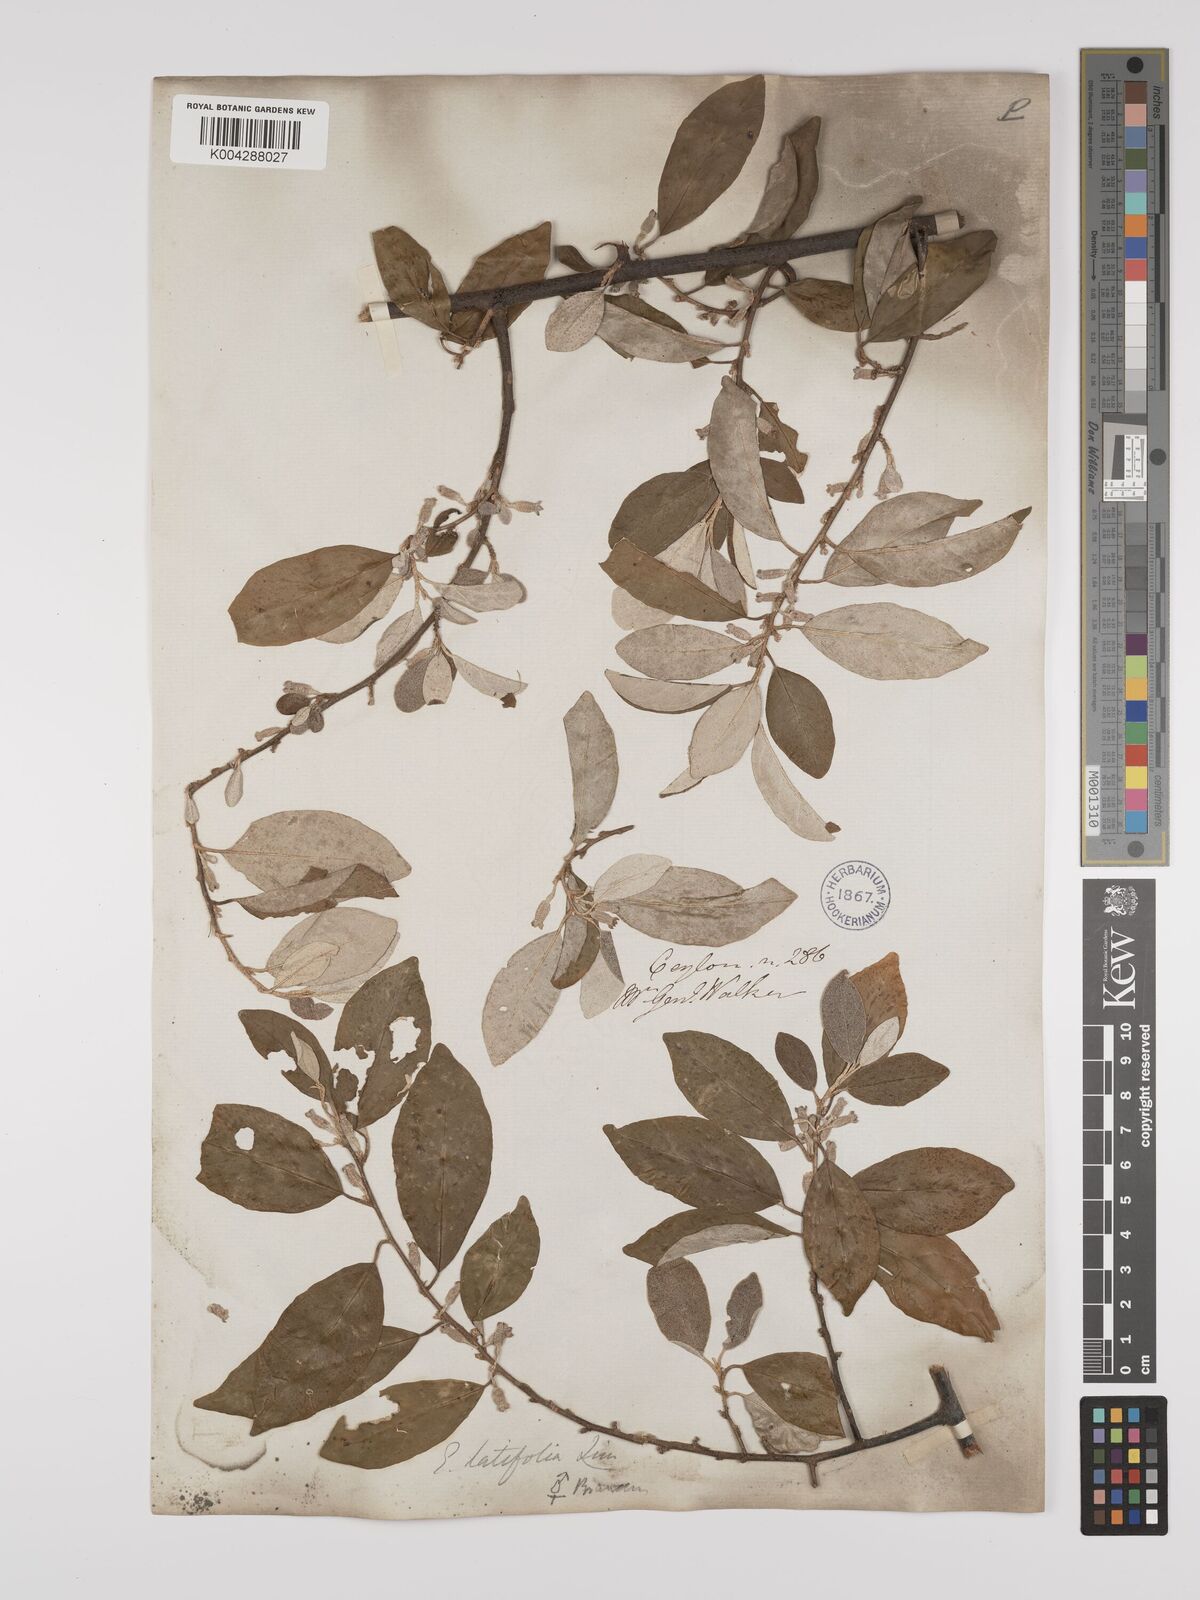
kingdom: Plantae
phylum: Tracheophyta
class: Magnoliopsida
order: Rosales
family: Elaeagnaceae
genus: Elaeagnus
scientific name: Elaeagnus latifolia
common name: Oleaster
